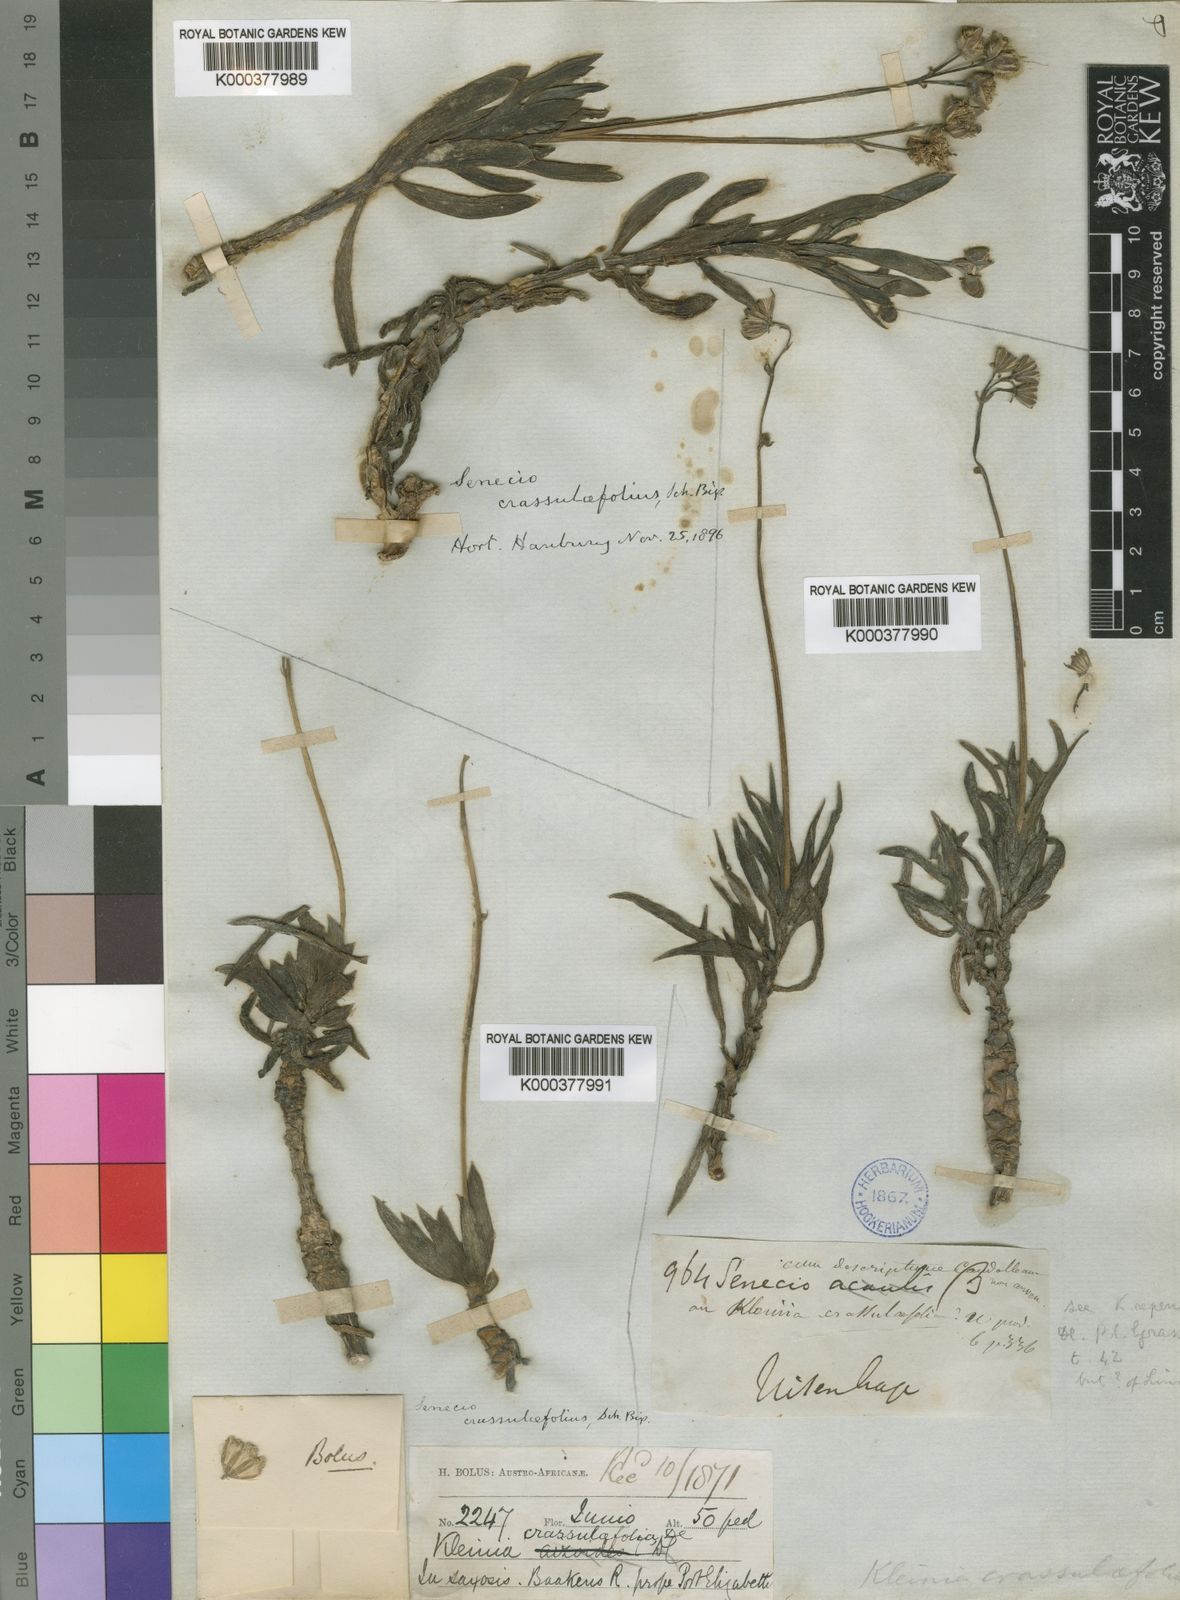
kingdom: Plantae
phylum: Tracheophyta
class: Magnoliopsida
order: Asterales
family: Asteraceae
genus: Curio
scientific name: Curio crassulifolius
